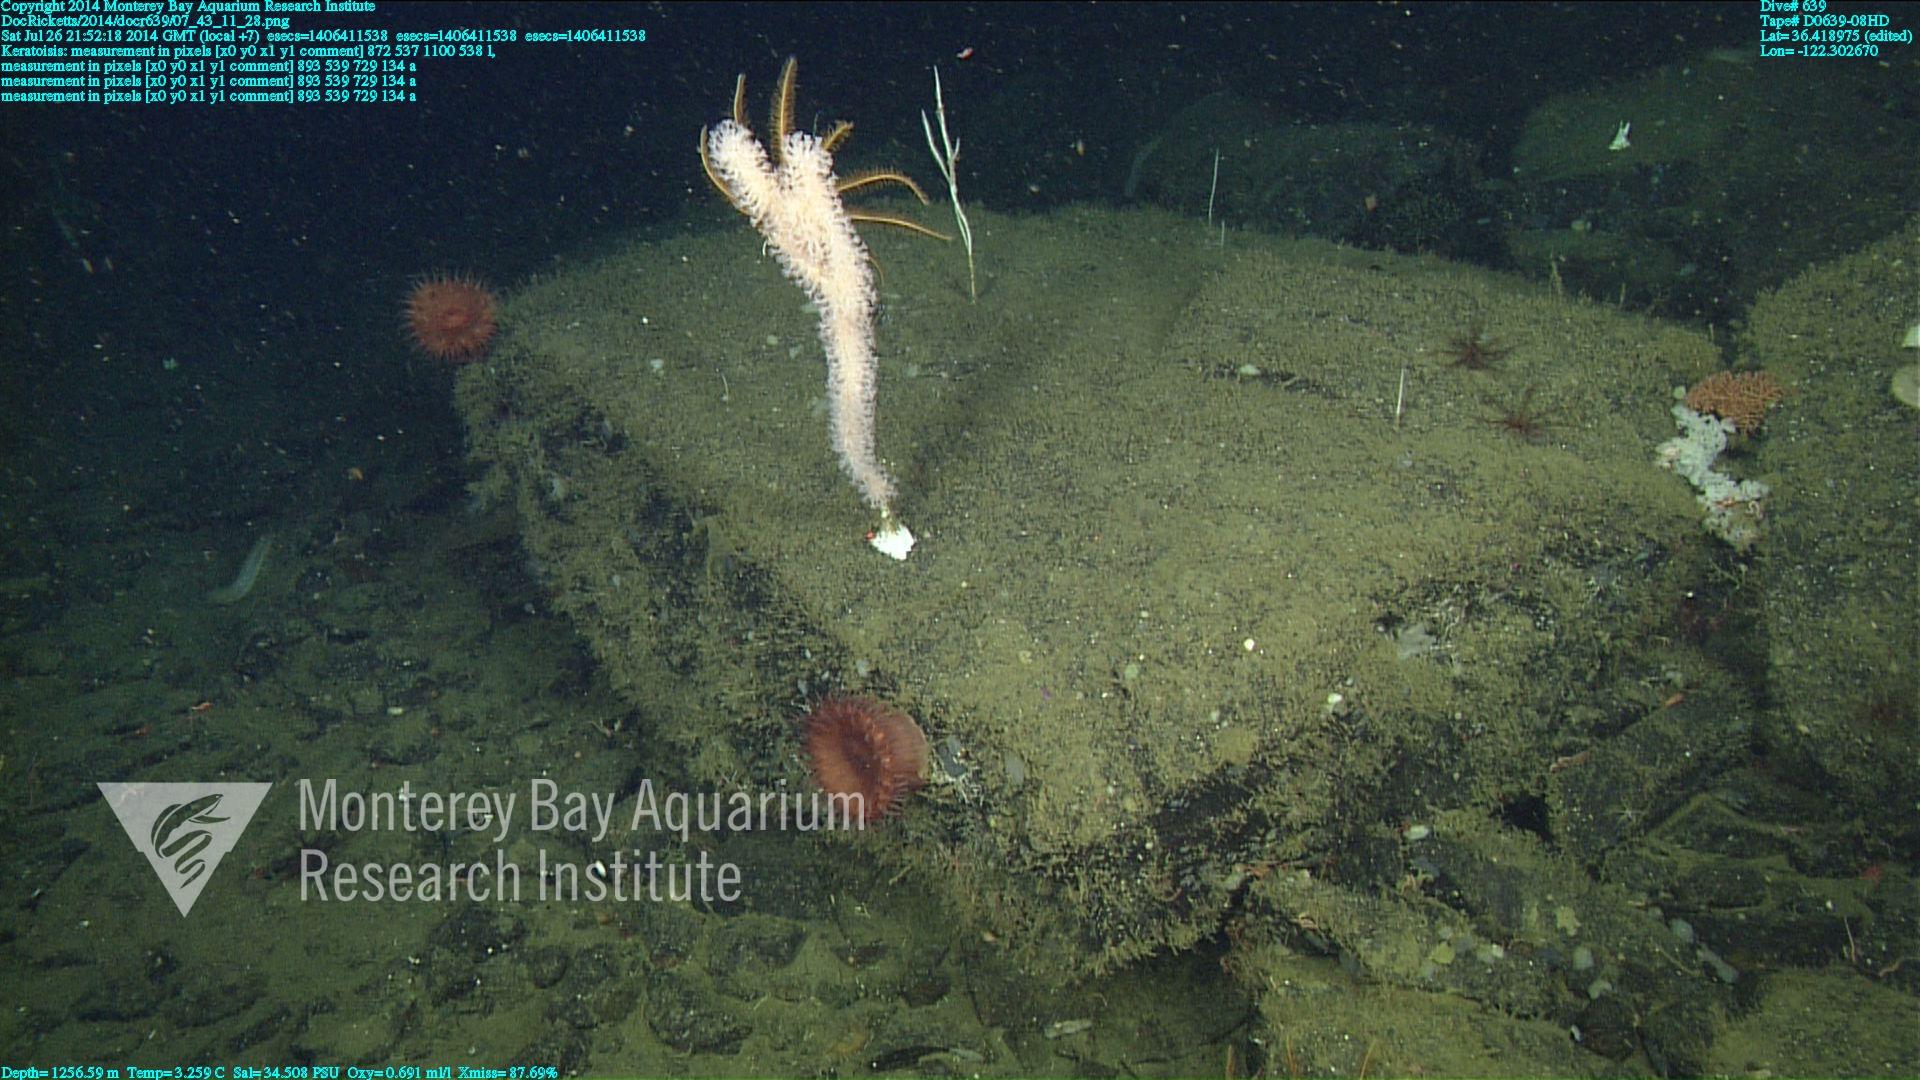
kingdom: Animalia
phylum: Cnidaria
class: Anthozoa
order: Scleralcyonacea
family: Keratoisididae
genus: Keratoisis
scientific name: Keratoisis
